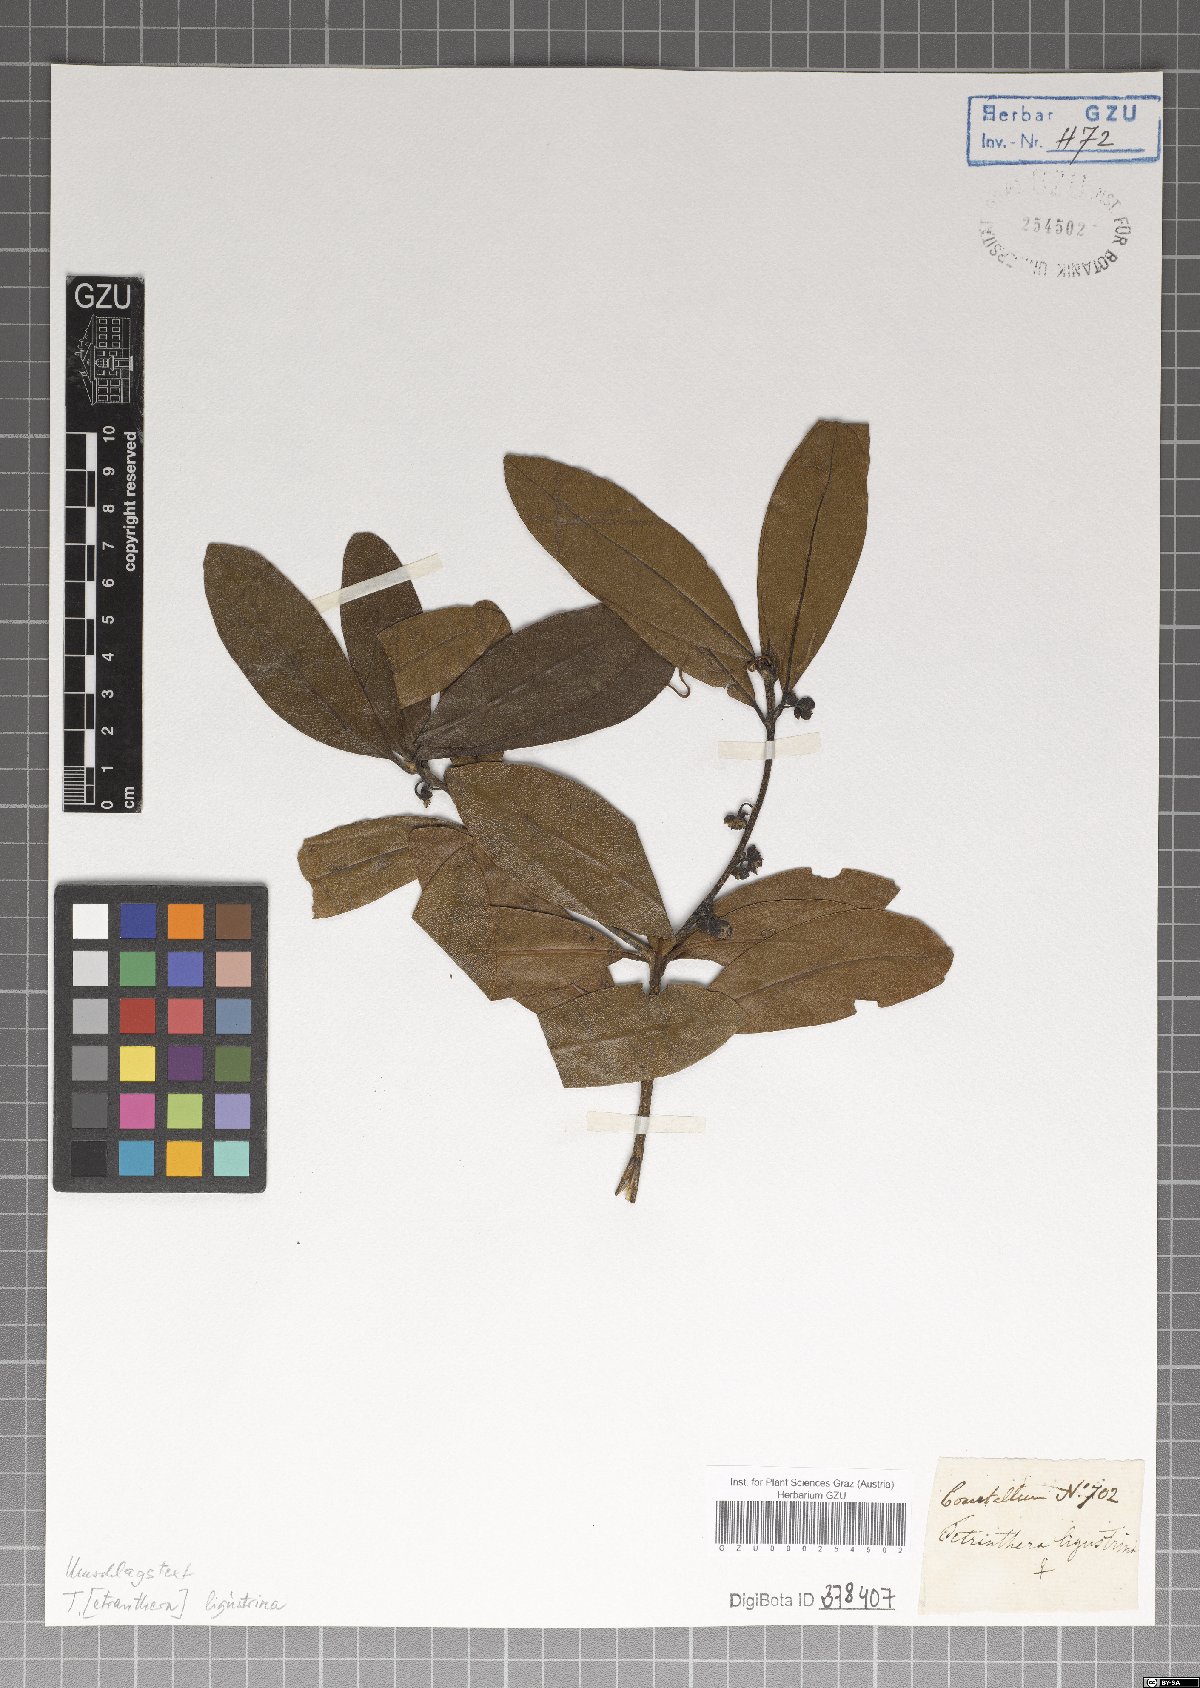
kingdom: Plantae
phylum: Tracheophyta
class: Magnoliopsida
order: Laurales
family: Lauraceae
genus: Litsea
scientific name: Litsea ligustrina
